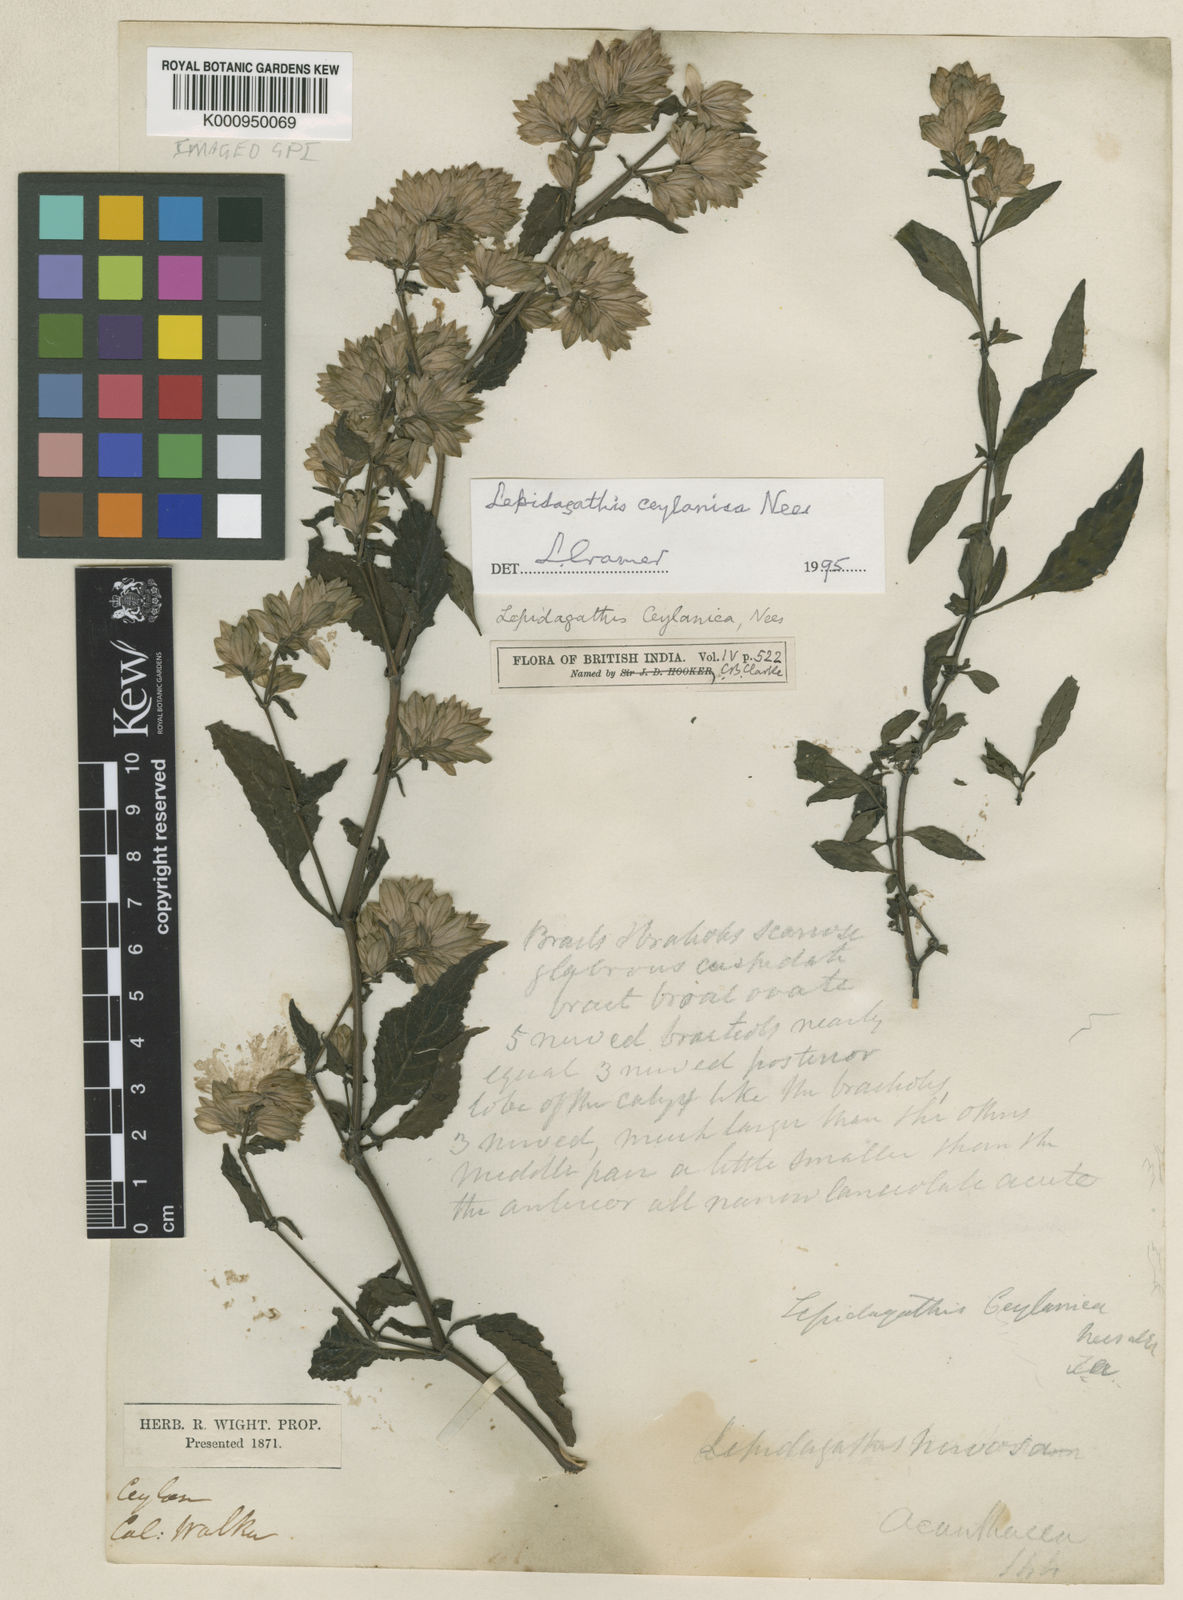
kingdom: Plantae
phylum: Tracheophyta
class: Magnoliopsida
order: Lamiales
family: Acanthaceae
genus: Lepidagathis
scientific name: Lepidagathis ceylanica
